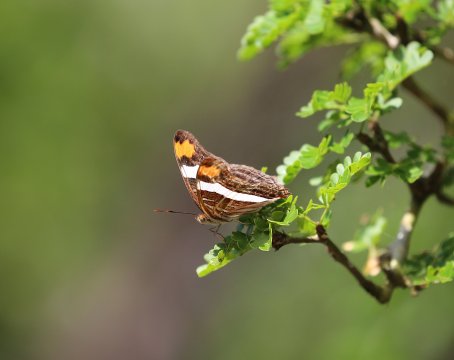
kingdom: Animalia
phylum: Arthropoda
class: Insecta
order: Lepidoptera
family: Nymphalidae
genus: Limenitis
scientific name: Limenitis fessonia
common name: Band-celled Sister
